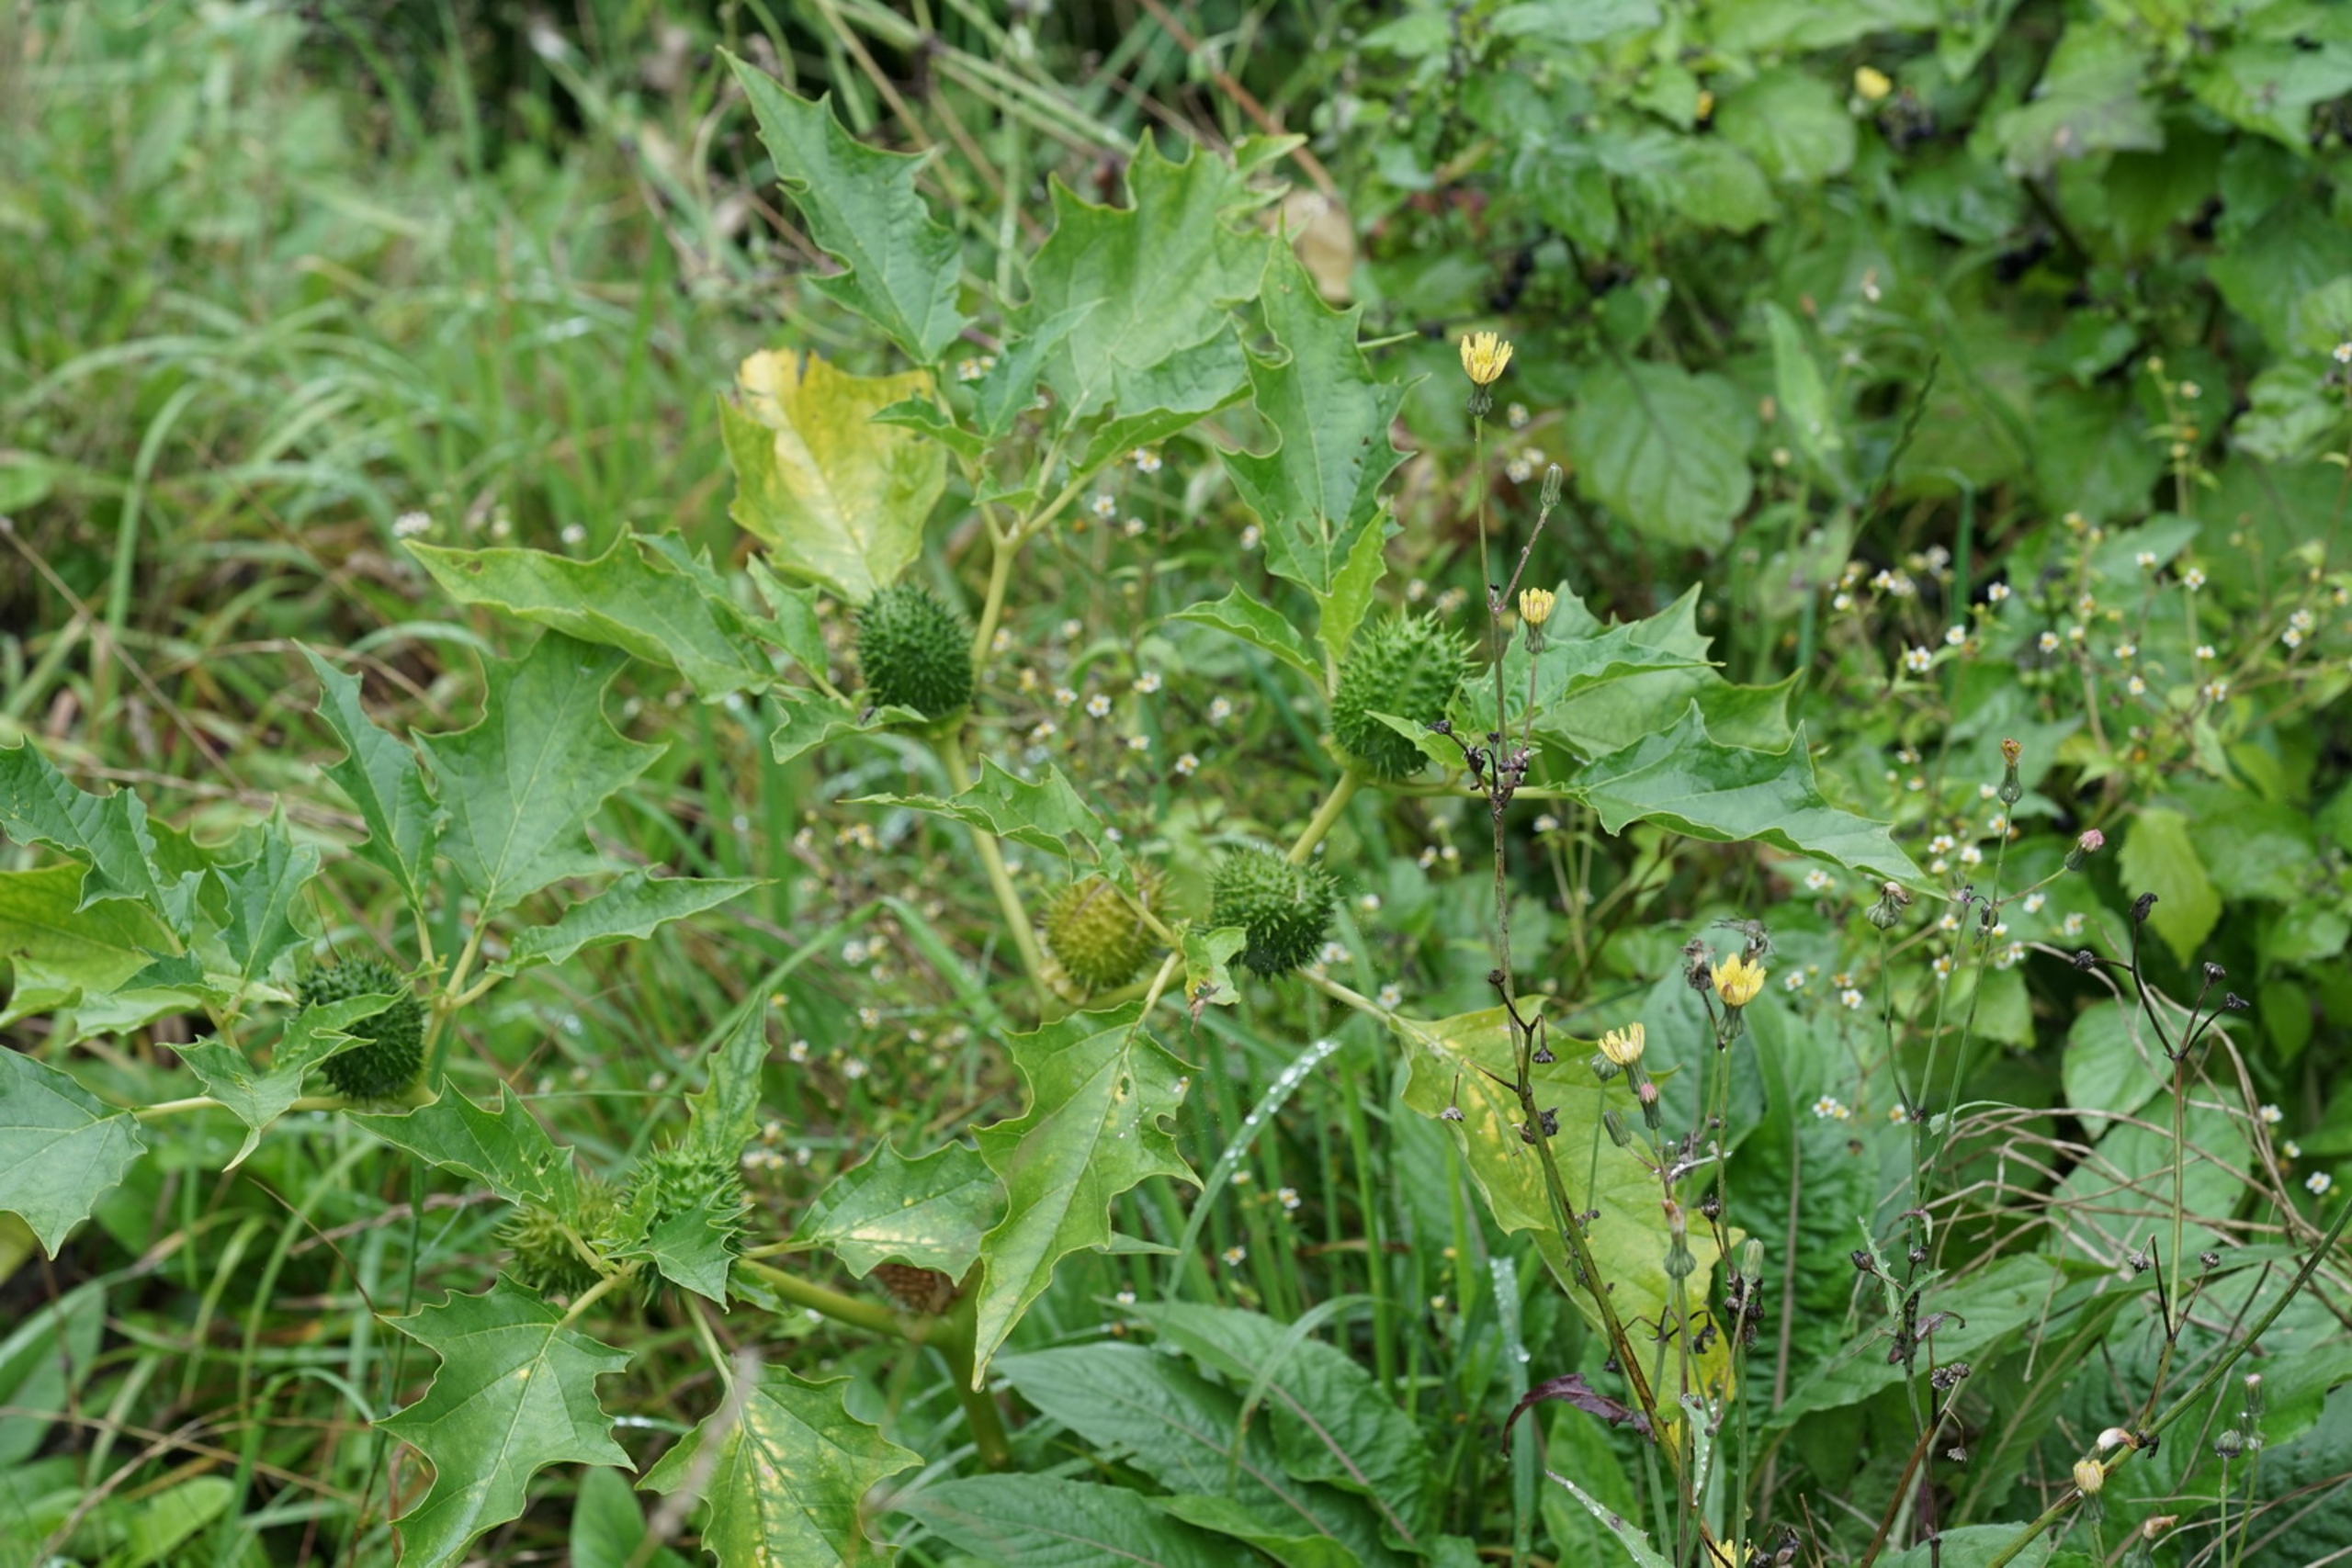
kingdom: Plantae
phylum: Tracheophyta
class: Magnoliopsida
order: Solanales
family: Solanaceae
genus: Datura
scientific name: Datura stramonium
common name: Pigæble
